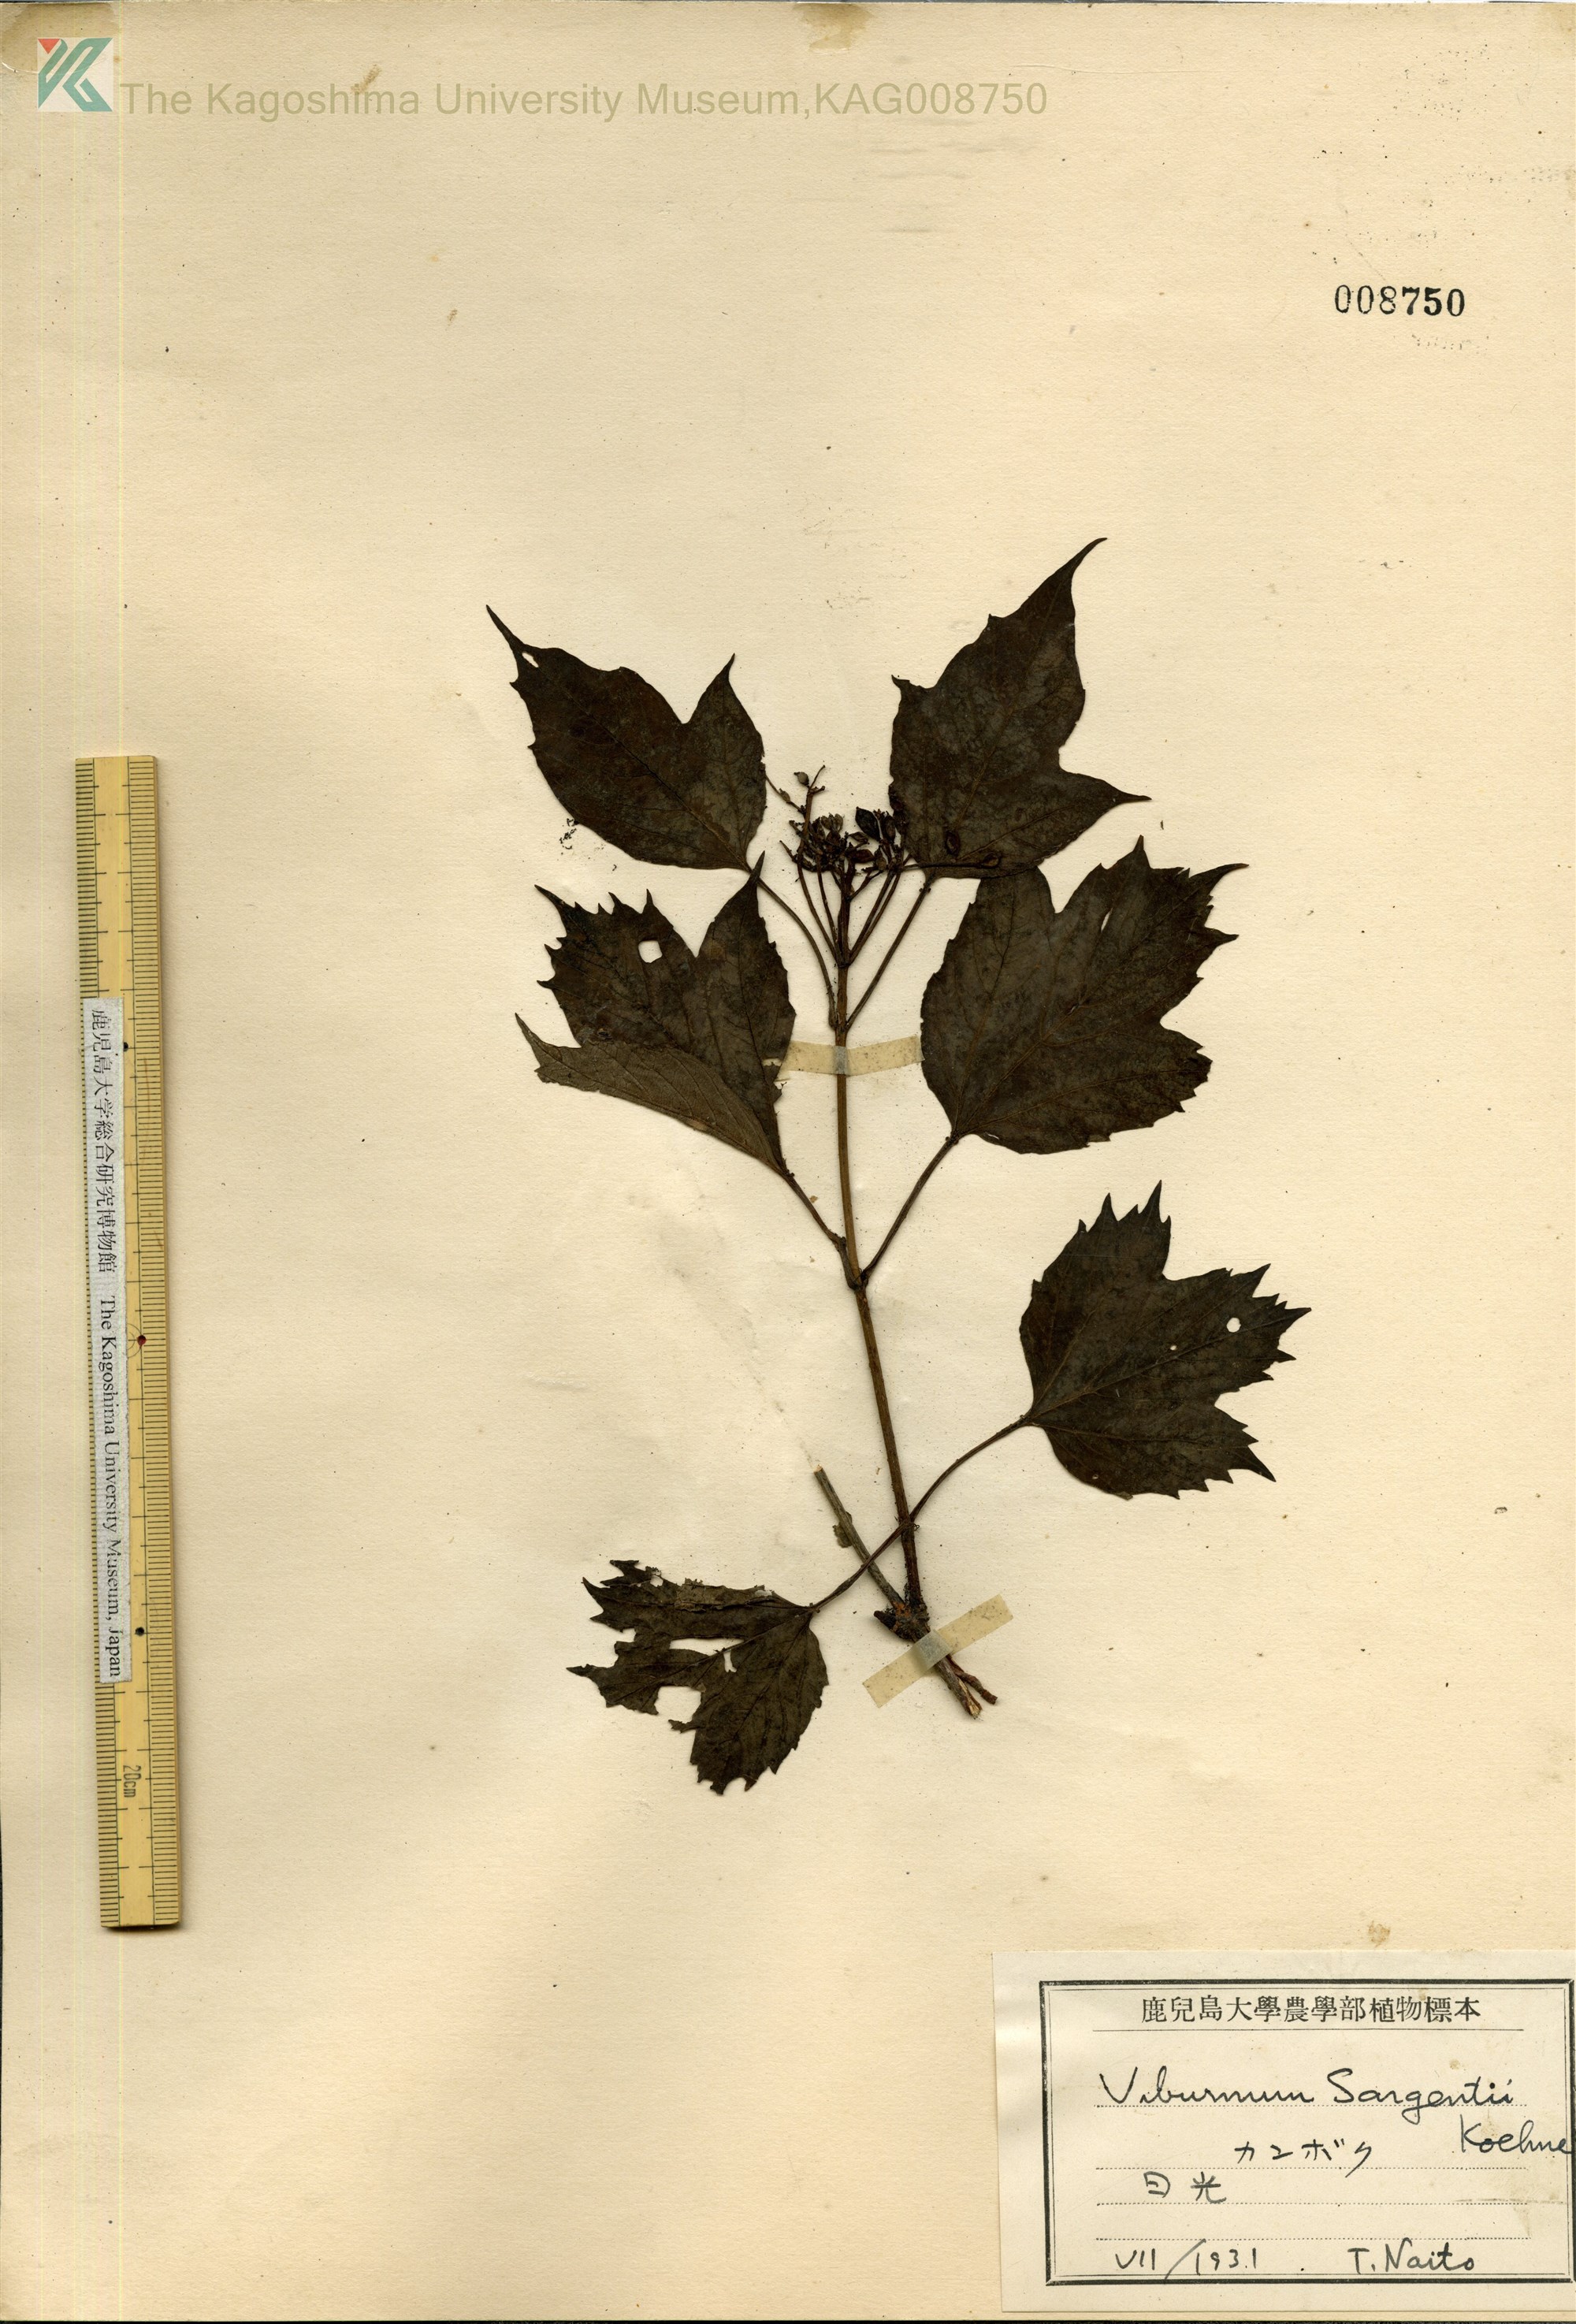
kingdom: Plantae
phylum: Tracheophyta
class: Magnoliopsida
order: Dipsacales
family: Viburnaceae
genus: Viburnum
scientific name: Viburnum opulus
